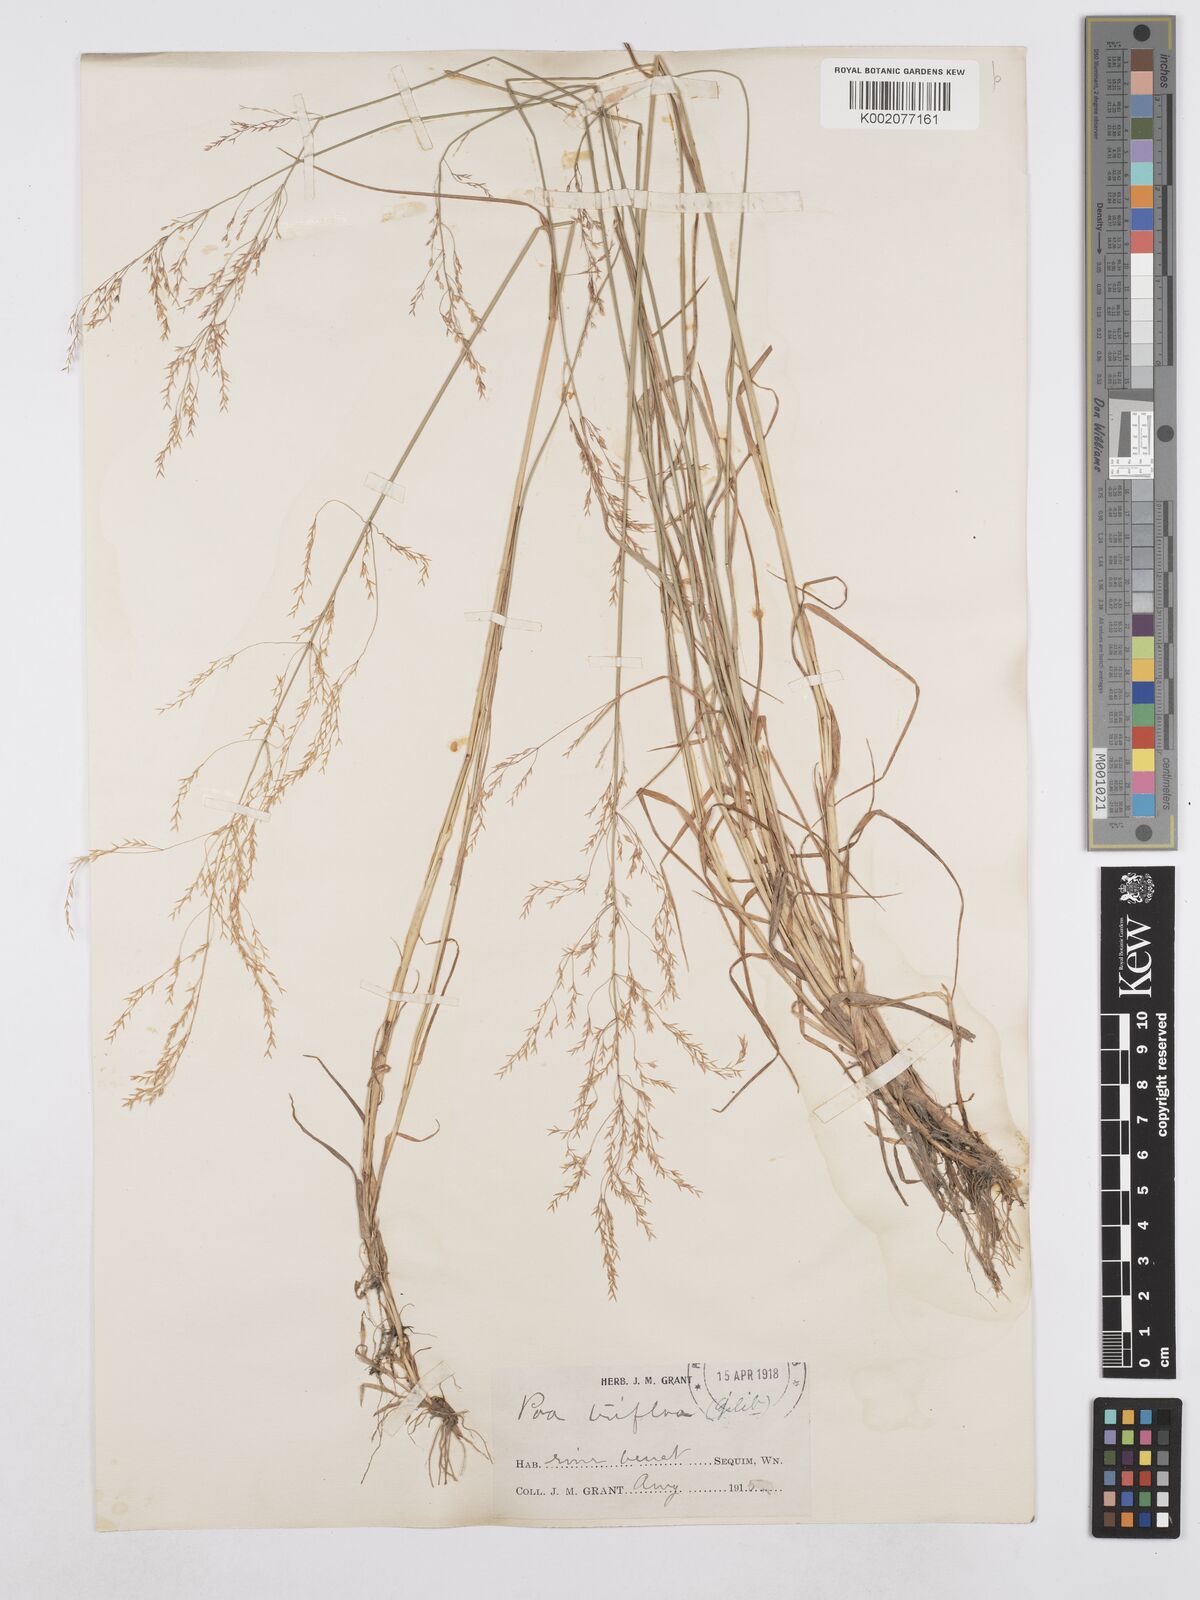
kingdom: Plantae
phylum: Tracheophyta
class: Liliopsida
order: Poales
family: Poaceae
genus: Poa
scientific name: Poa palustris
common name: Swamp meadow-grass
